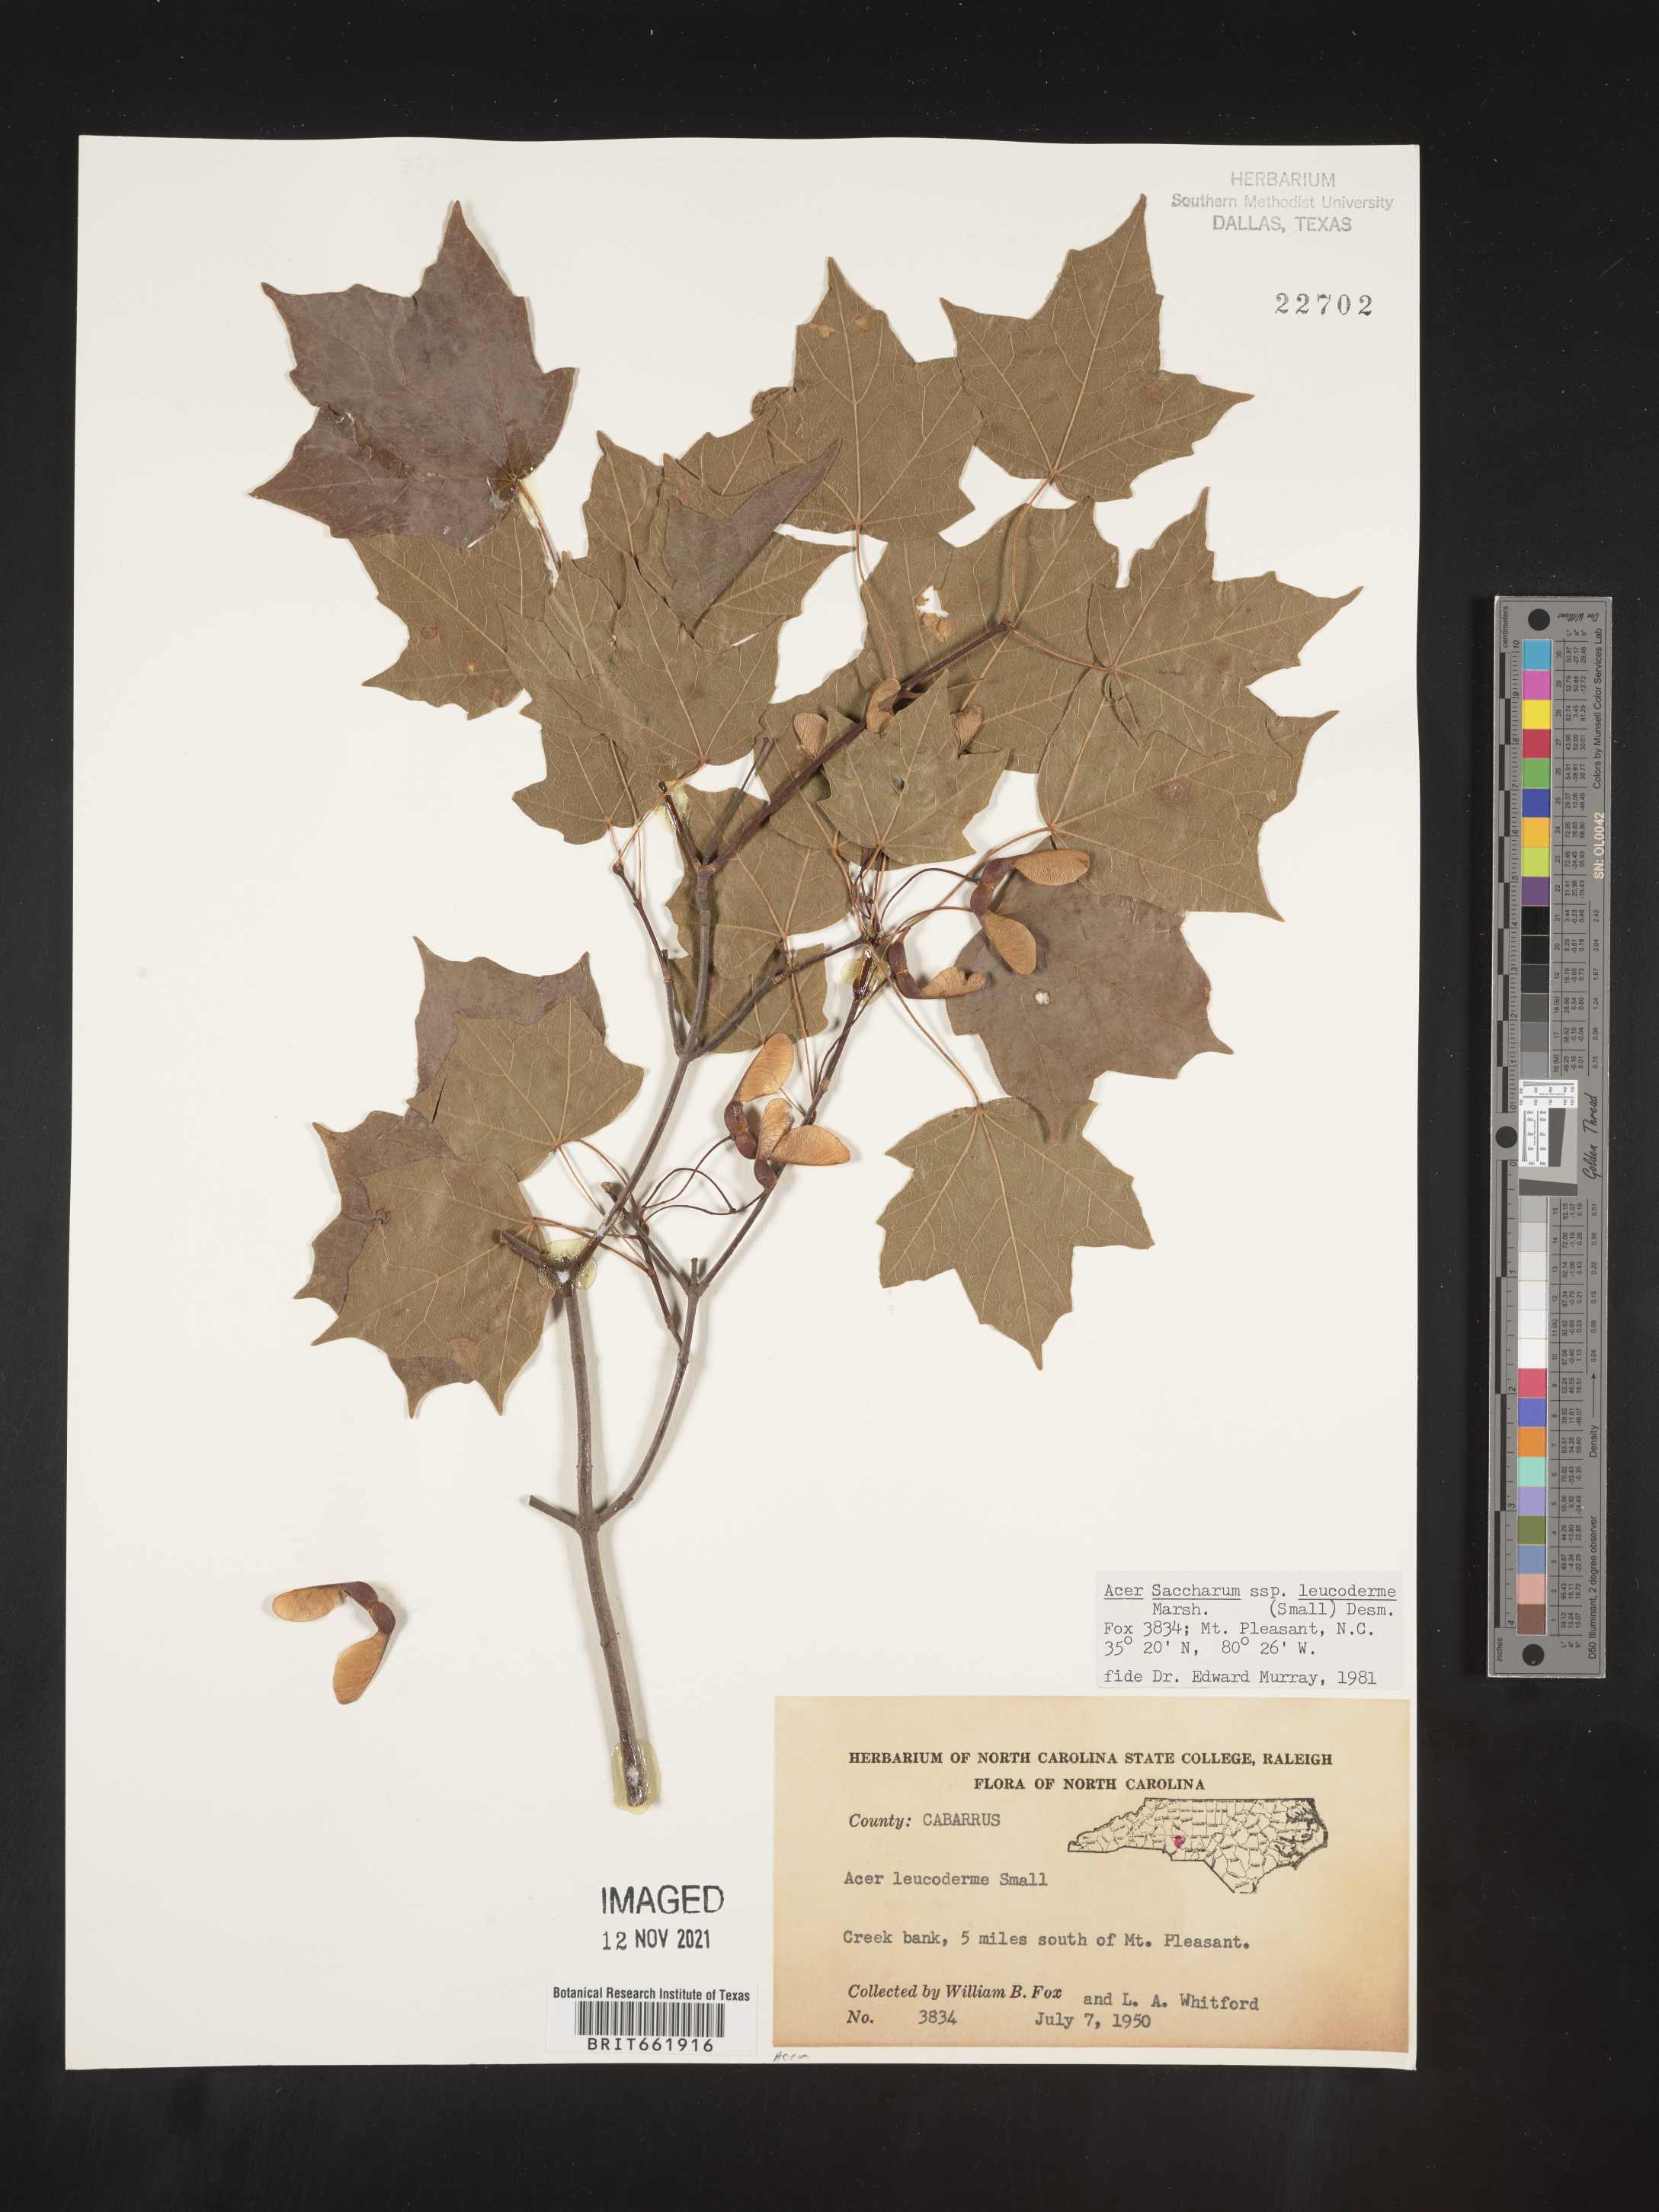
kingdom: Plantae
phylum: Tracheophyta
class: Magnoliopsida
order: Sapindales
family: Sapindaceae
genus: Acer
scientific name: Acer leucoderme
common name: Chalk maple
